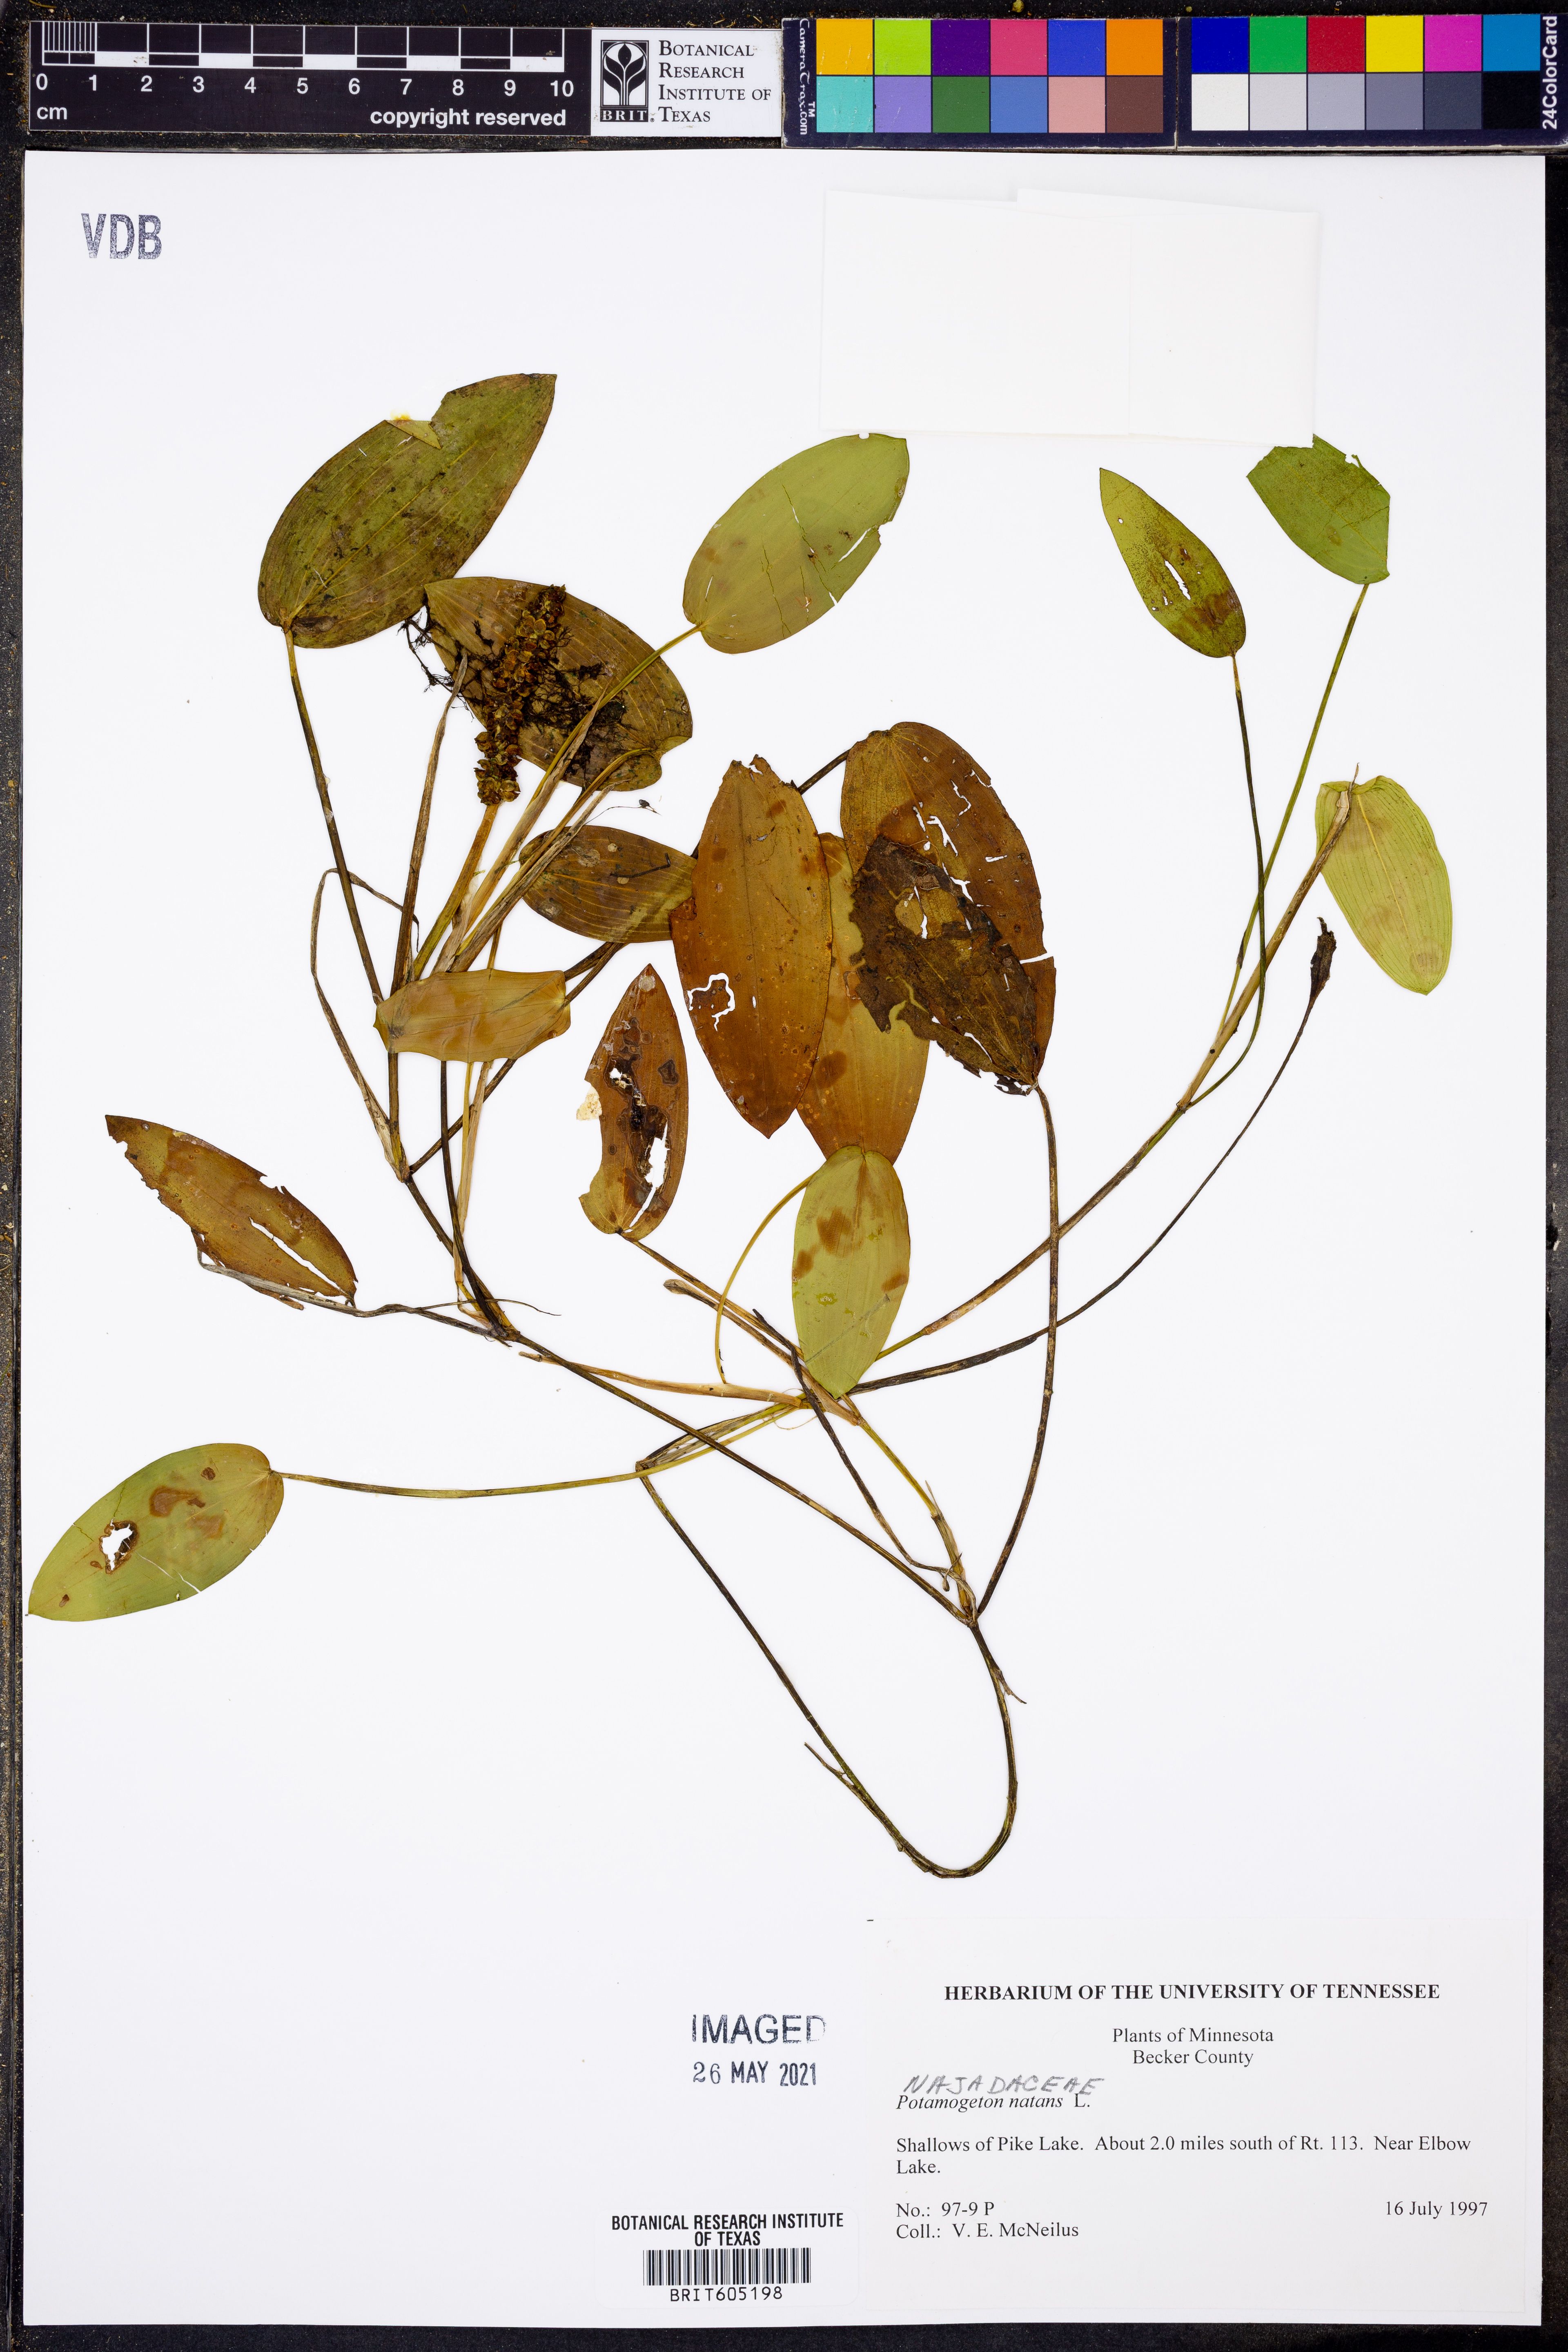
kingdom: Plantae
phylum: Tracheophyta
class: Liliopsida
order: Alismatales
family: Potamogetonaceae
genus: Potamogeton
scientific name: Potamogeton natans
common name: Broad-leaved pondweed
